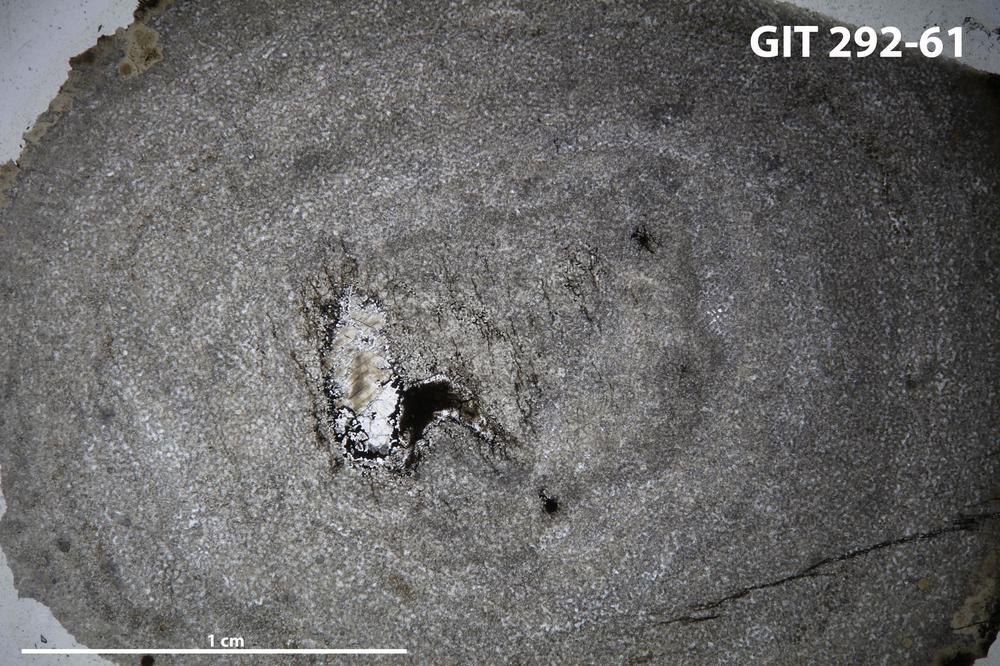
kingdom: Animalia
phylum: Porifera
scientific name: Porifera
